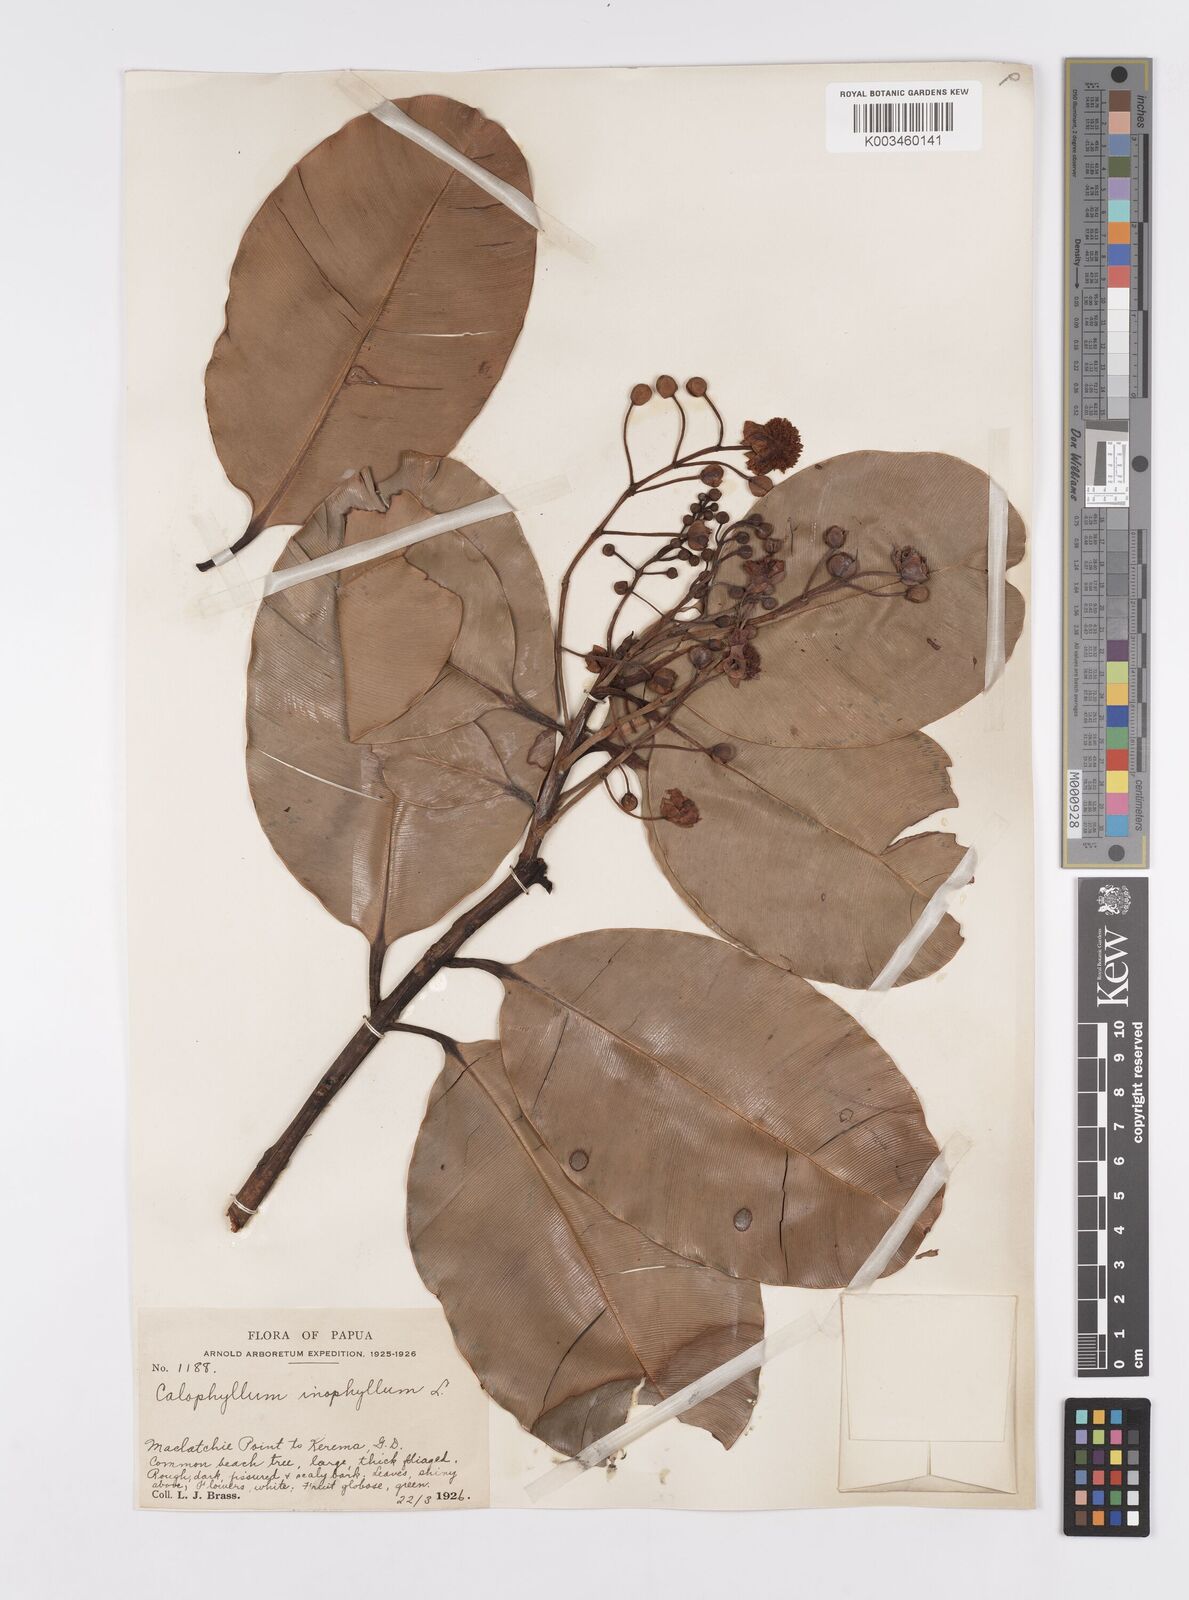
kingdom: Plantae
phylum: Tracheophyta
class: Magnoliopsida
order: Malpighiales
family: Calophyllaceae
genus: Calophyllum
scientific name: Calophyllum inophyllum
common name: Alexandrian laurel
